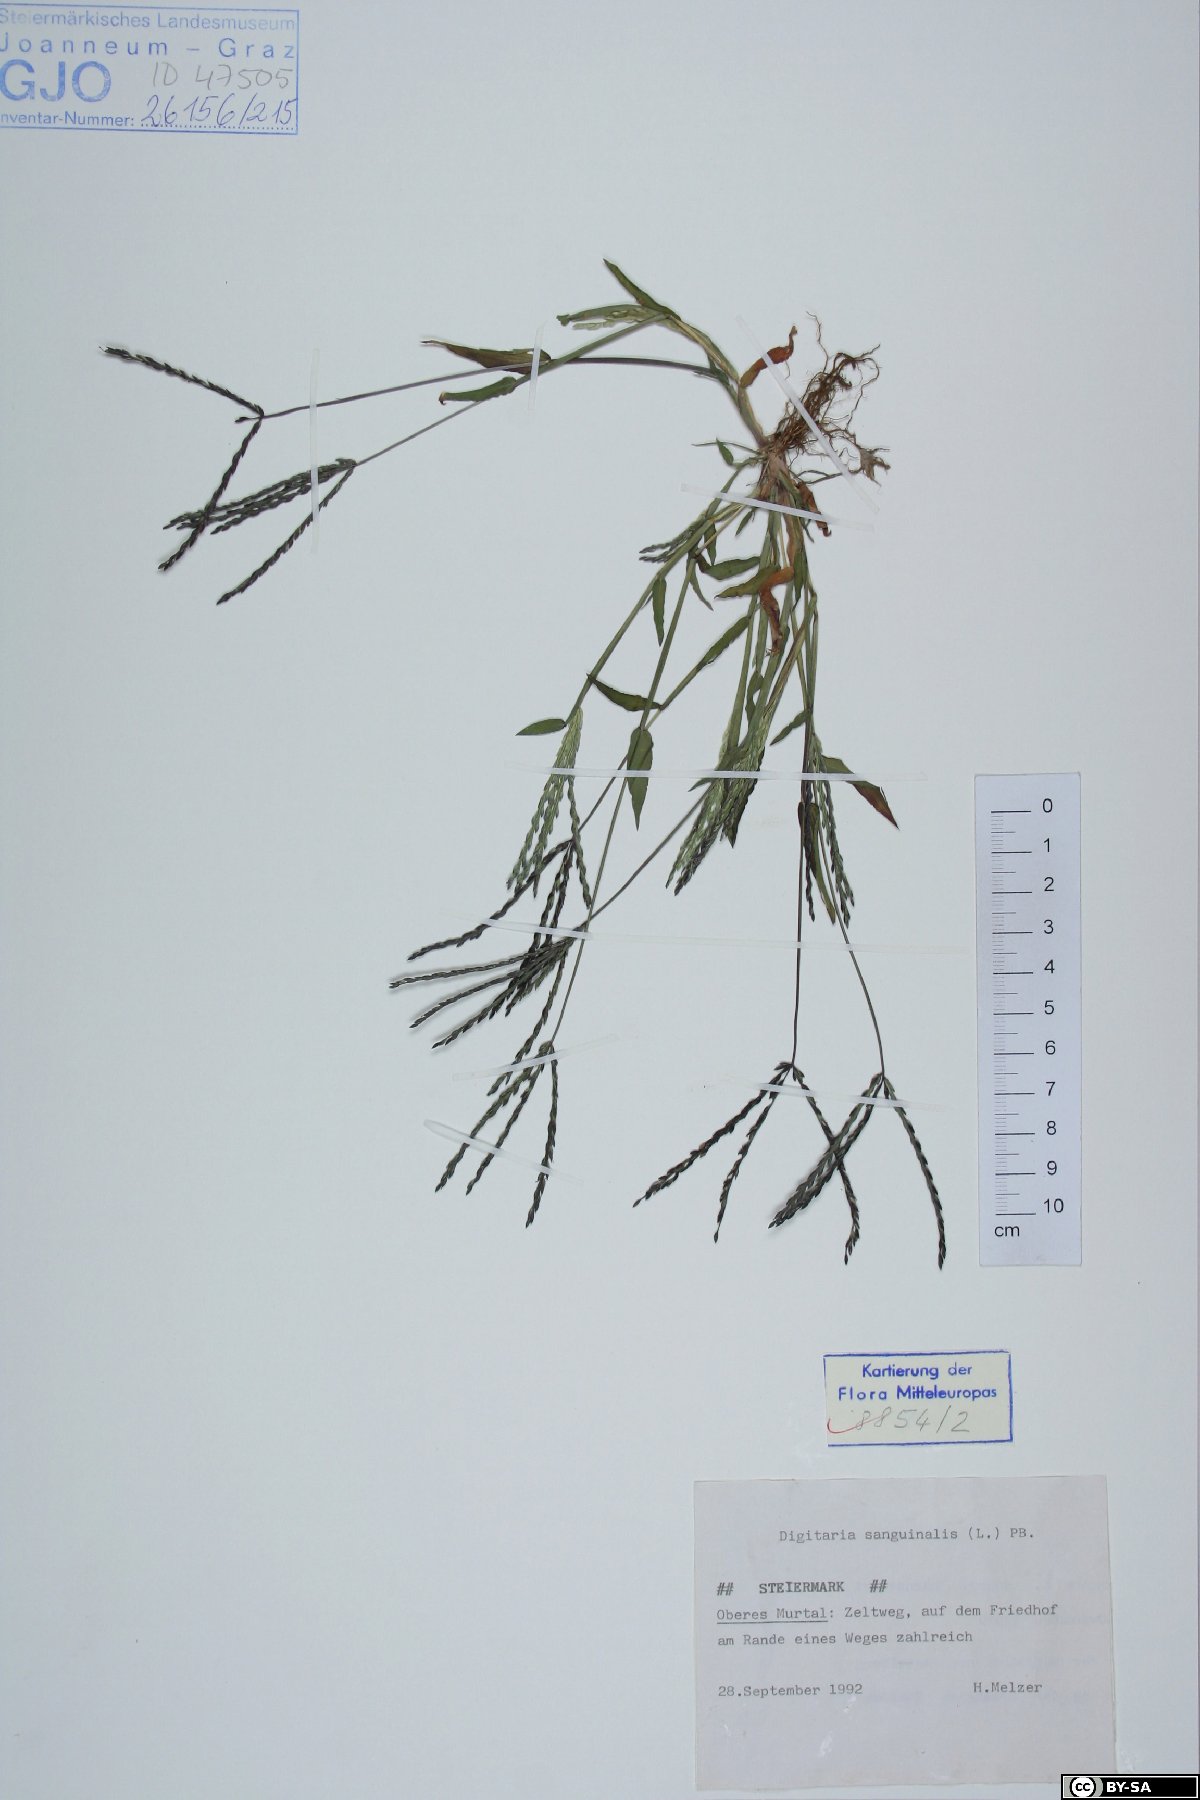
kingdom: Plantae
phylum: Tracheophyta
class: Liliopsida
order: Poales
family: Poaceae
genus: Digitaria
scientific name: Digitaria sanguinalis
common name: Hairy crabgrass
